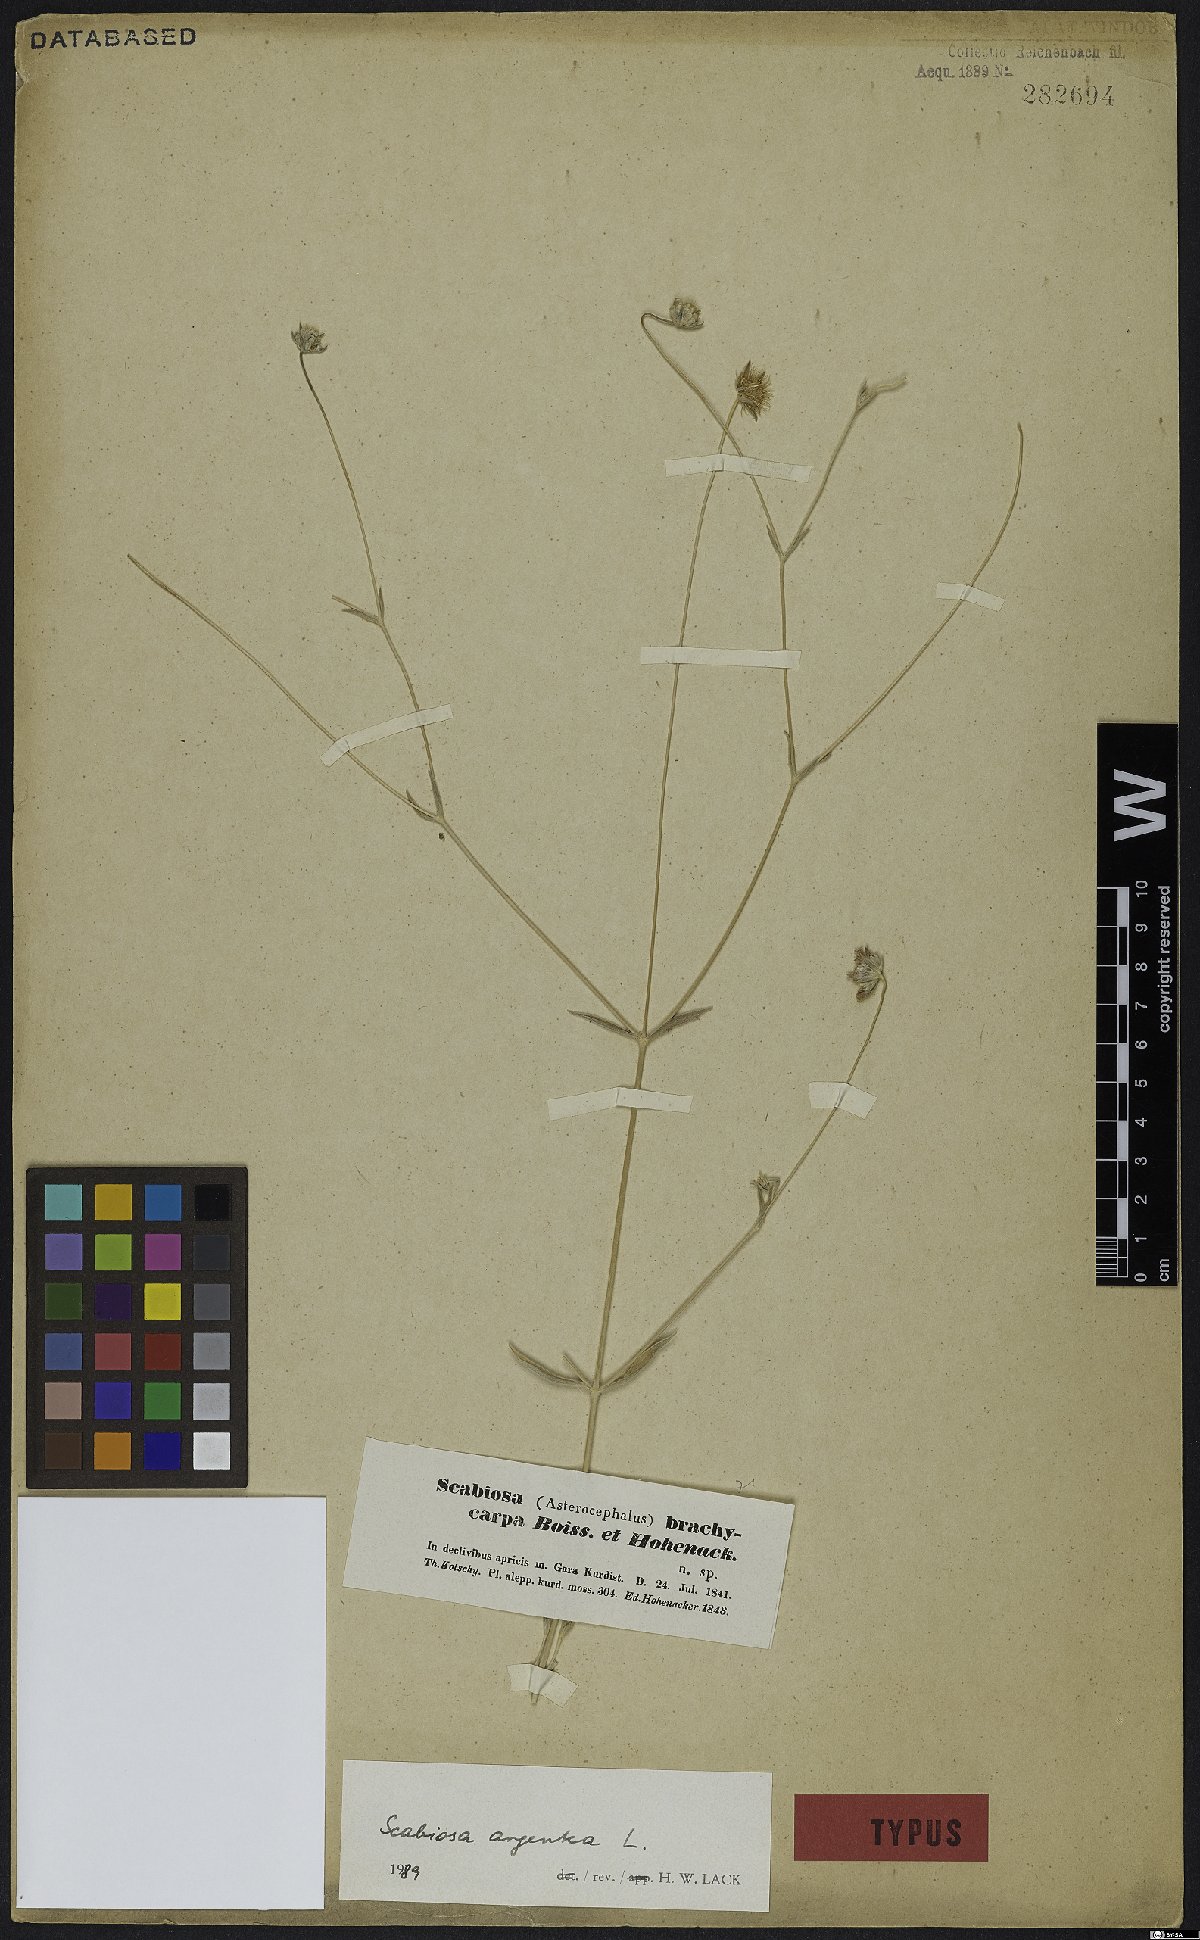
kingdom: Plantae
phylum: Tracheophyta
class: Magnoliopsida
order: Dipsacales
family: Caprifoliaceae
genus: Lomelosia
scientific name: Lomelosia argentea
